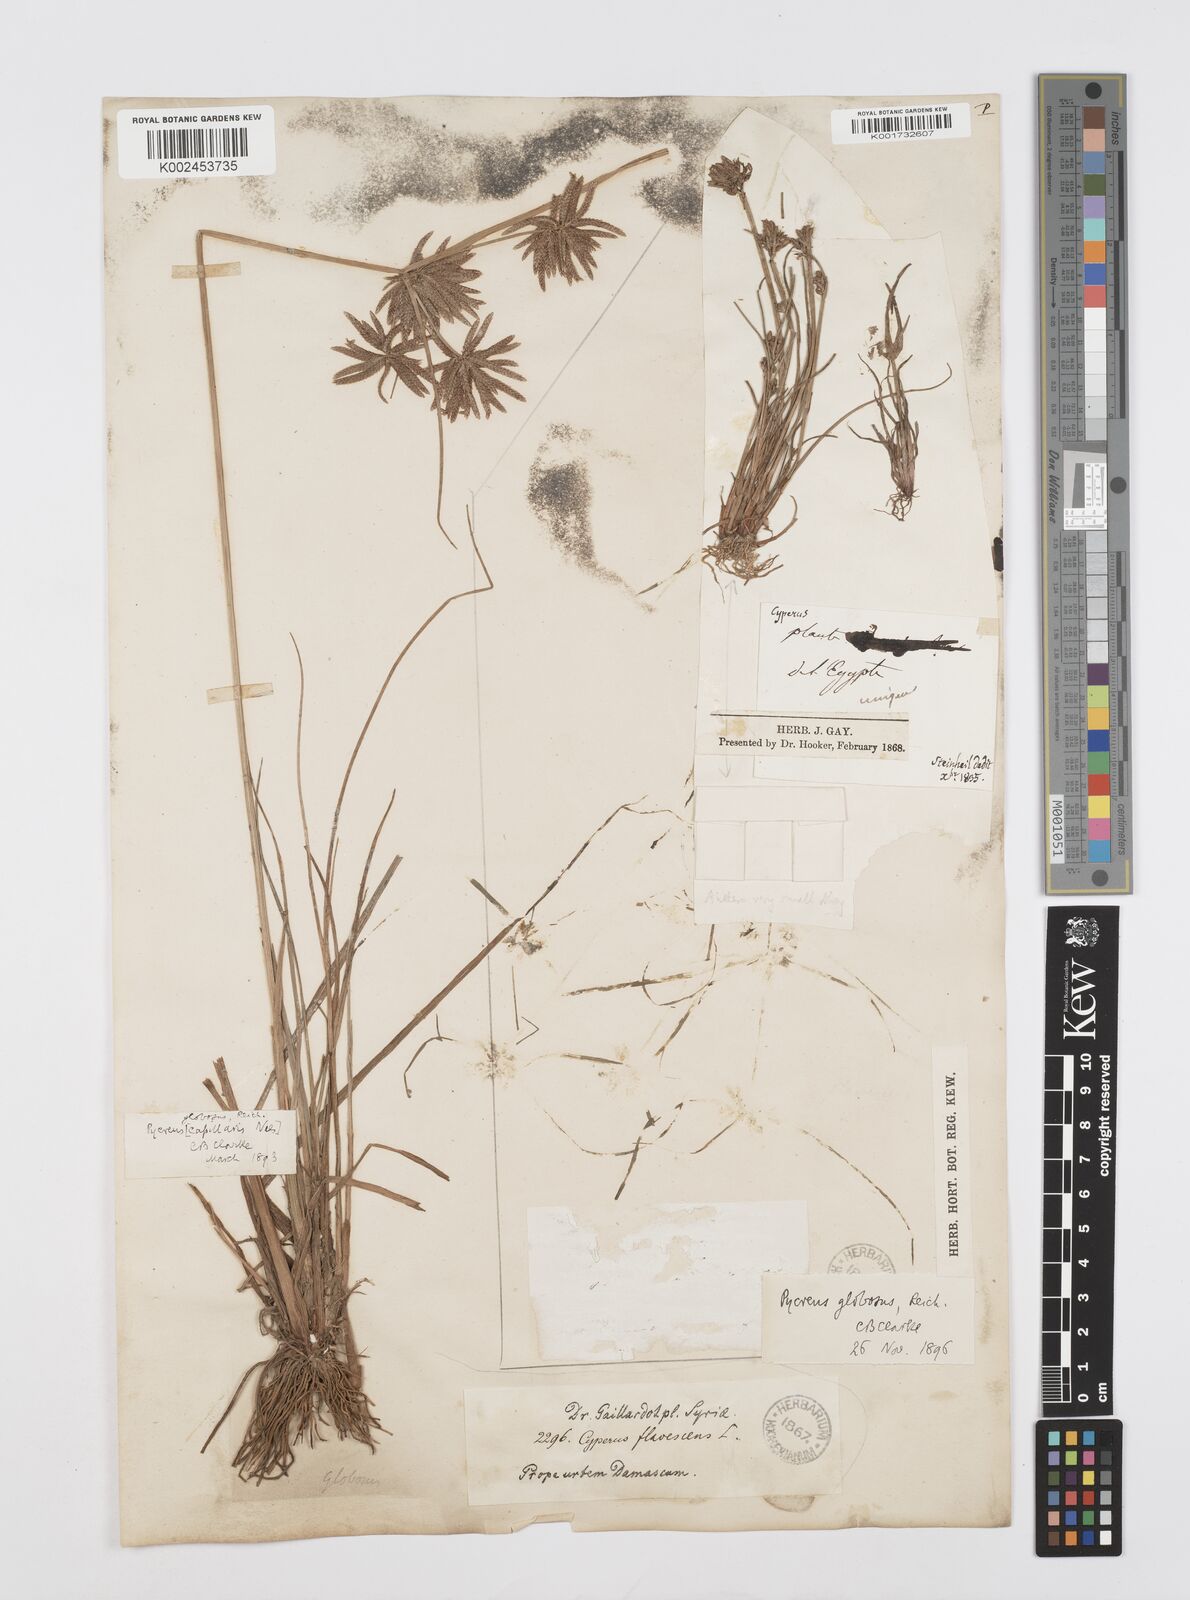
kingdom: Plantae
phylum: Tracheophyta
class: Liliopsida
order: Poales
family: Cyperaceae
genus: Cyperus
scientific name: Cyperus flavidus
